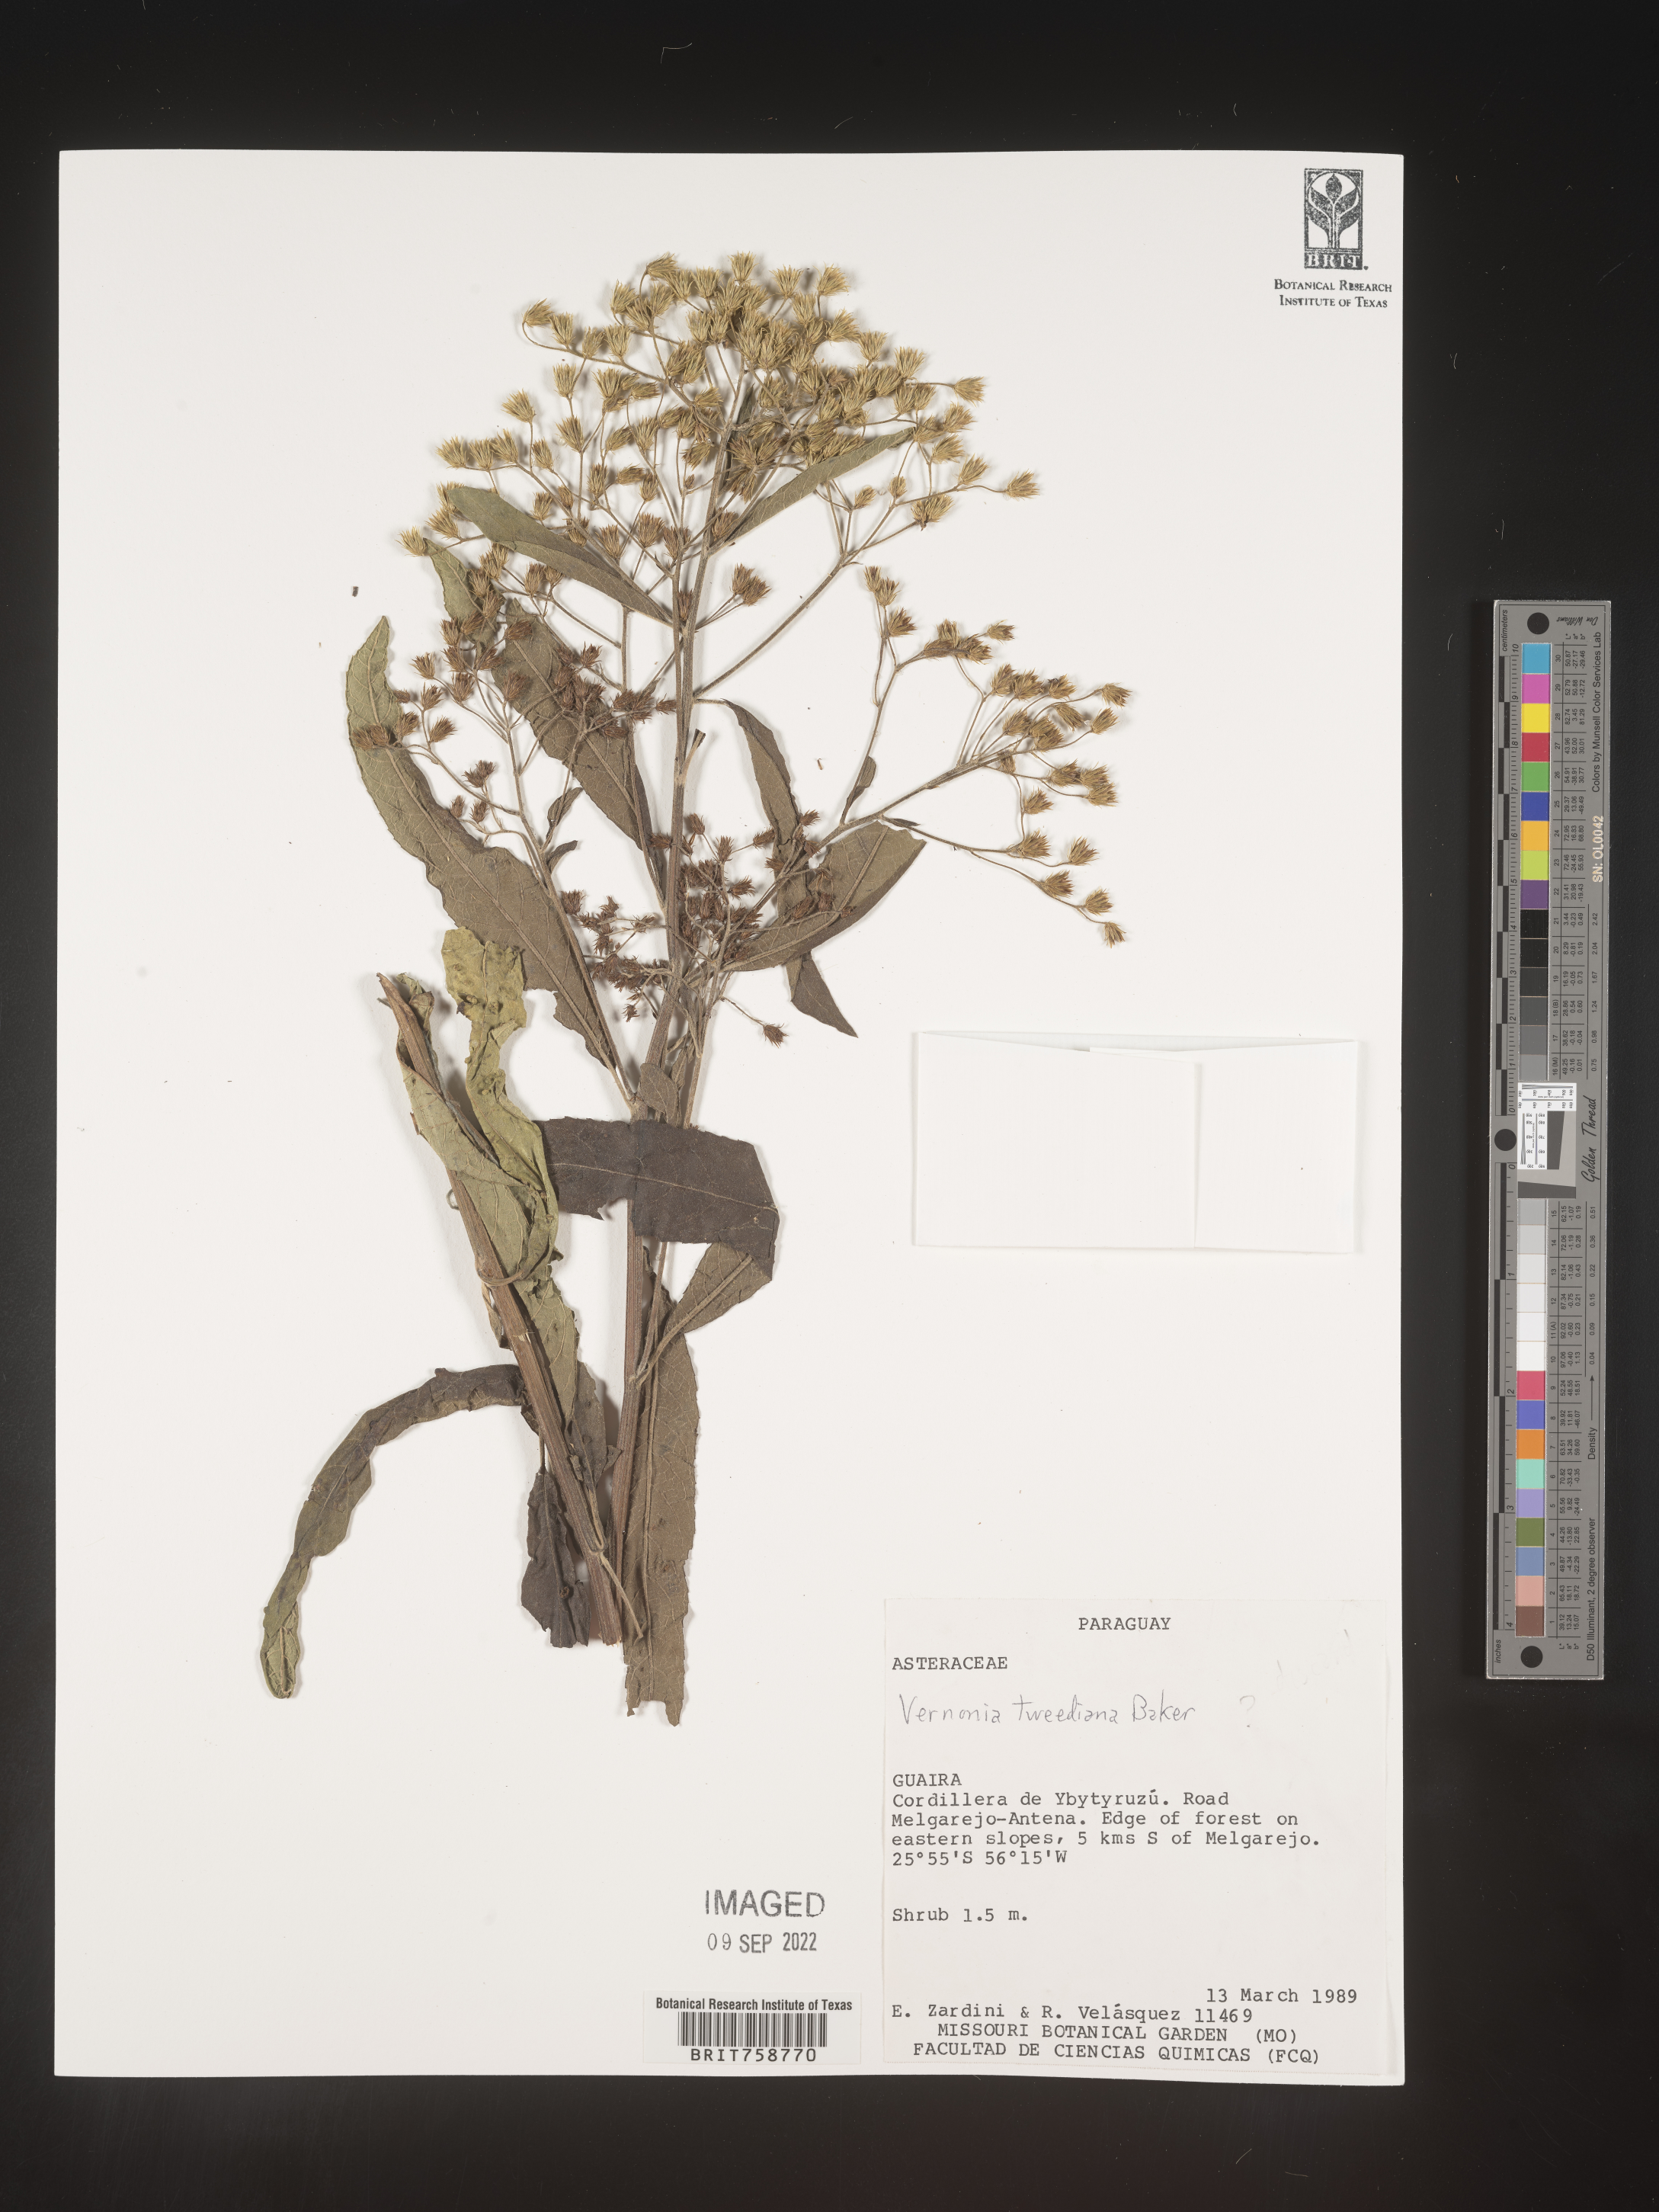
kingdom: Plantae
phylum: Tracheophyta
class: Magnoliopsida
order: Asterales
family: Asteraceae
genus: Vernonia
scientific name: Vernonia
